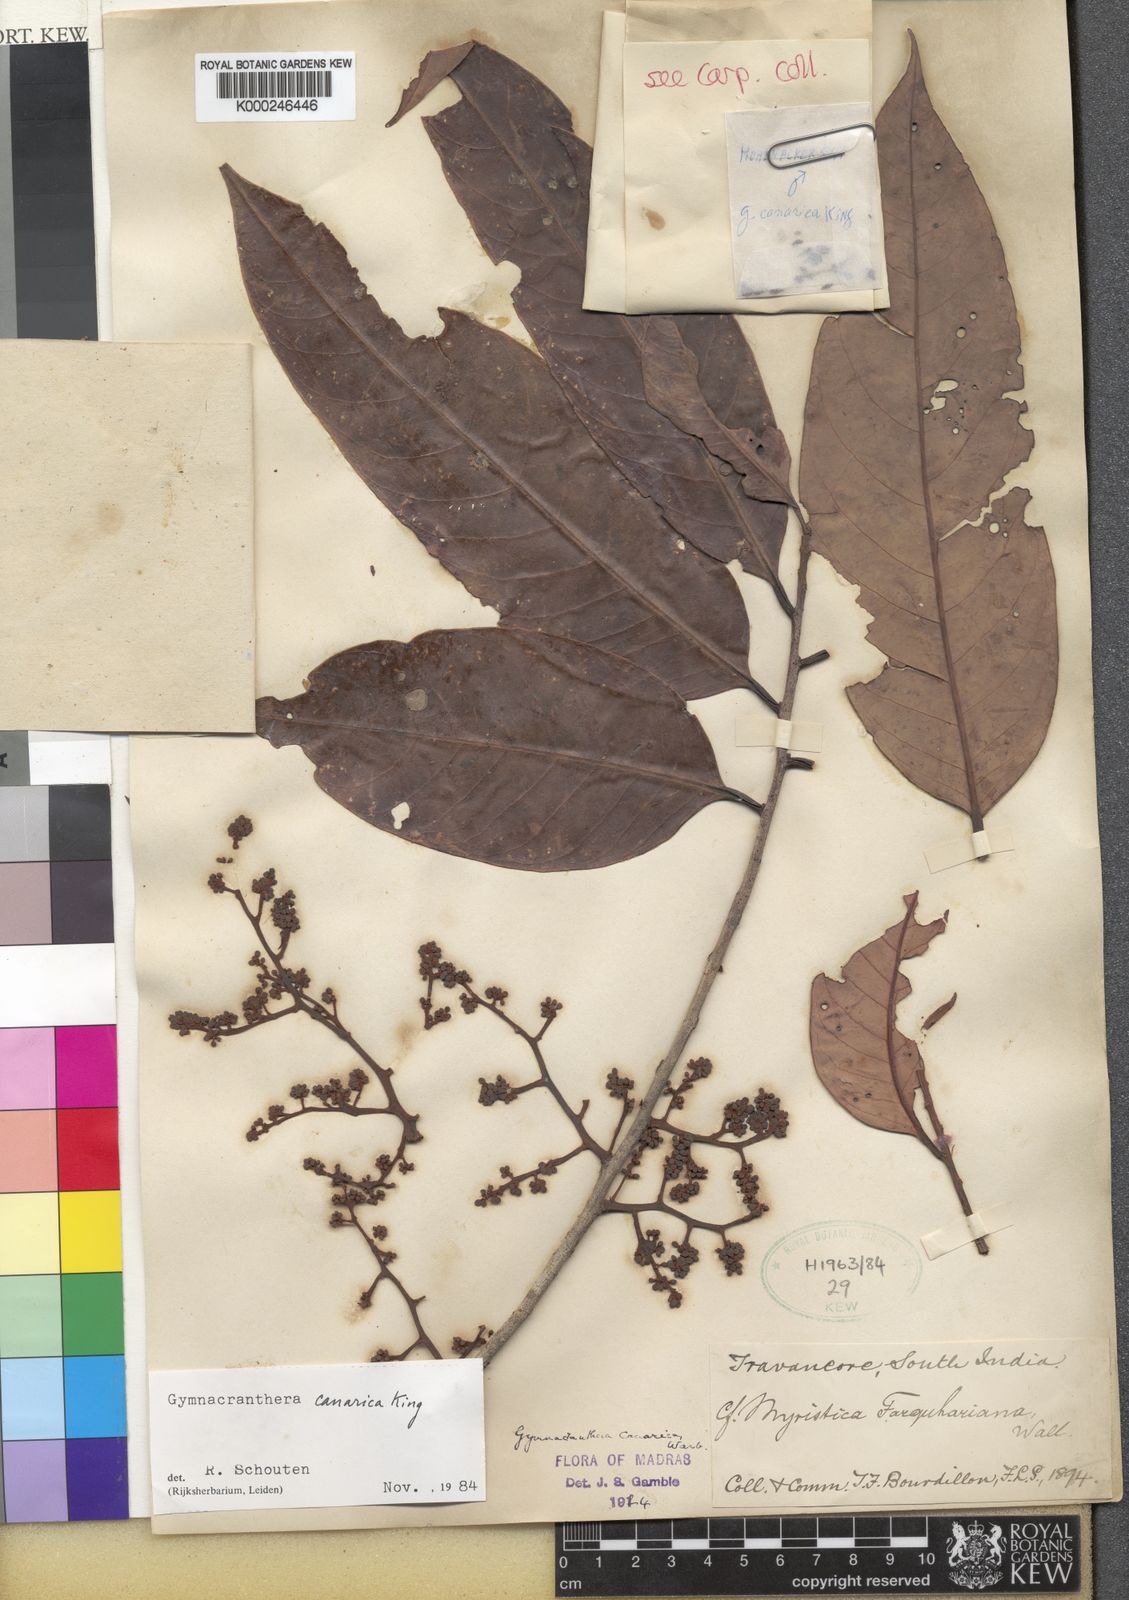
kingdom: Plantae
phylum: Tracheophyta
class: Magnoliopsida
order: Magnoliales
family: Myristicaceae
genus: Gymnacranthera
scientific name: Gymnacranthera canarica
